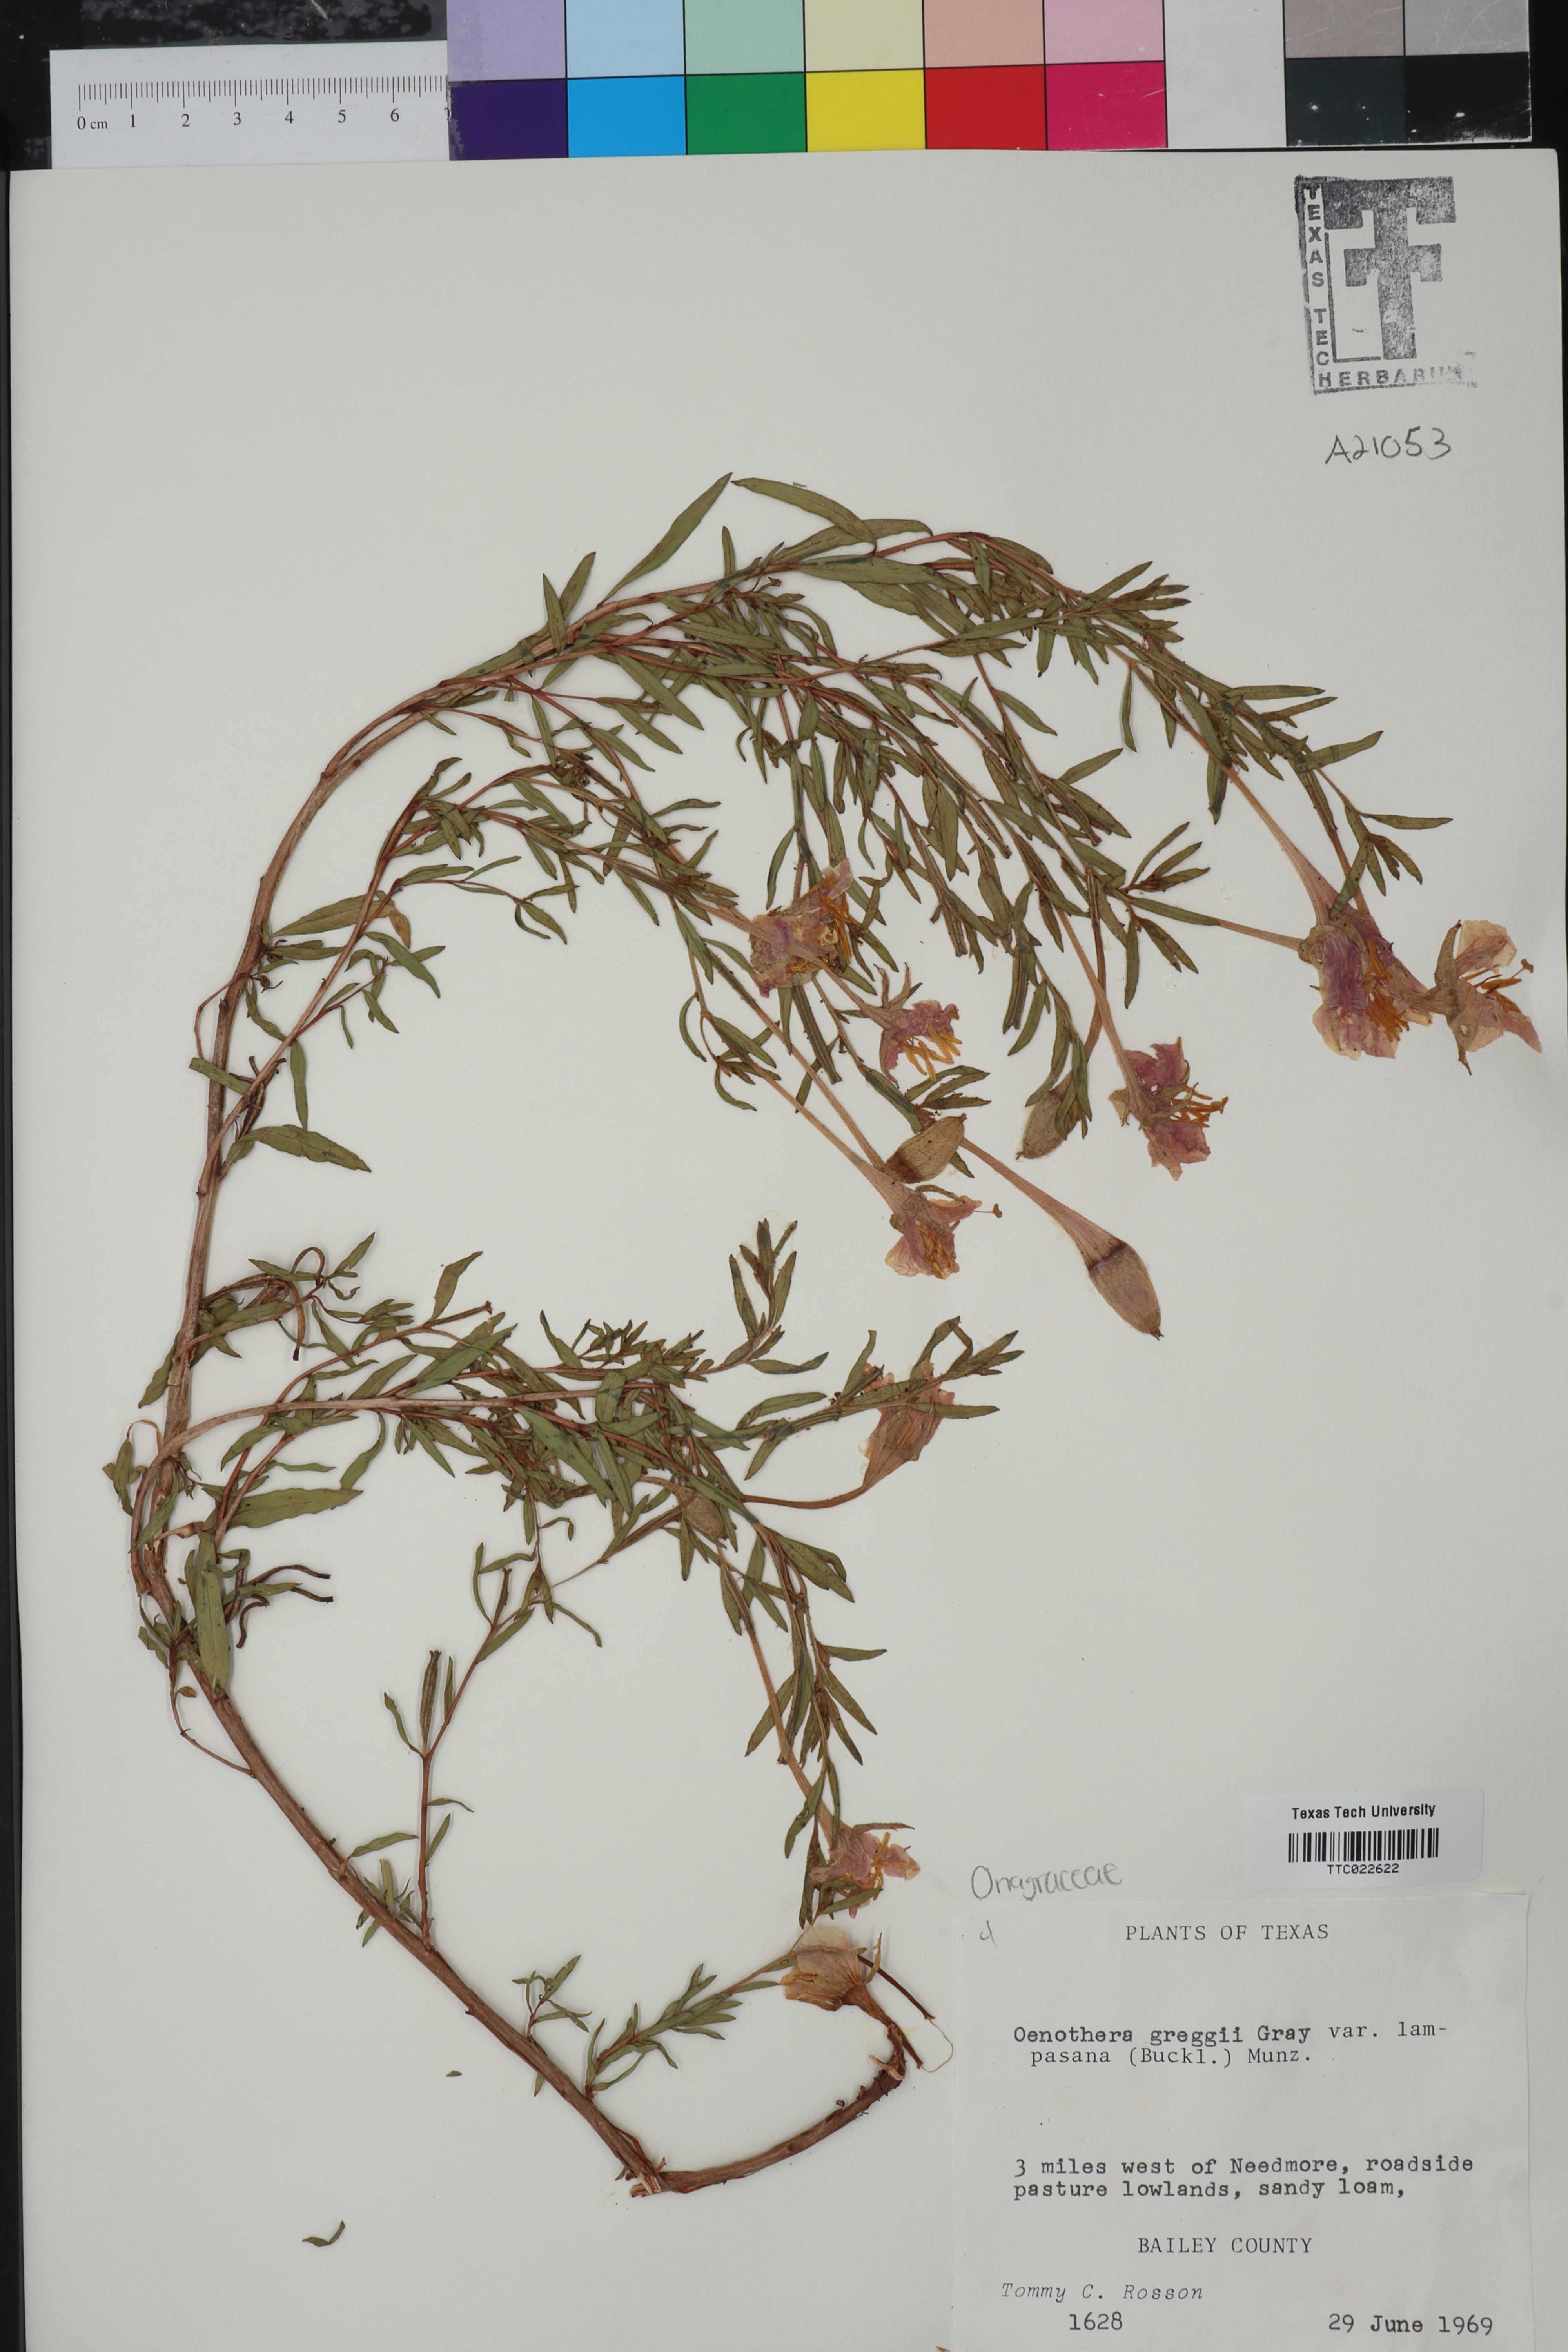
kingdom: Plantae
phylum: Tracheophyta
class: Magnoliopsida
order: Myrtales
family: Onagraceae
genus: Oenothera
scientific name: Oenothera hartwegii
